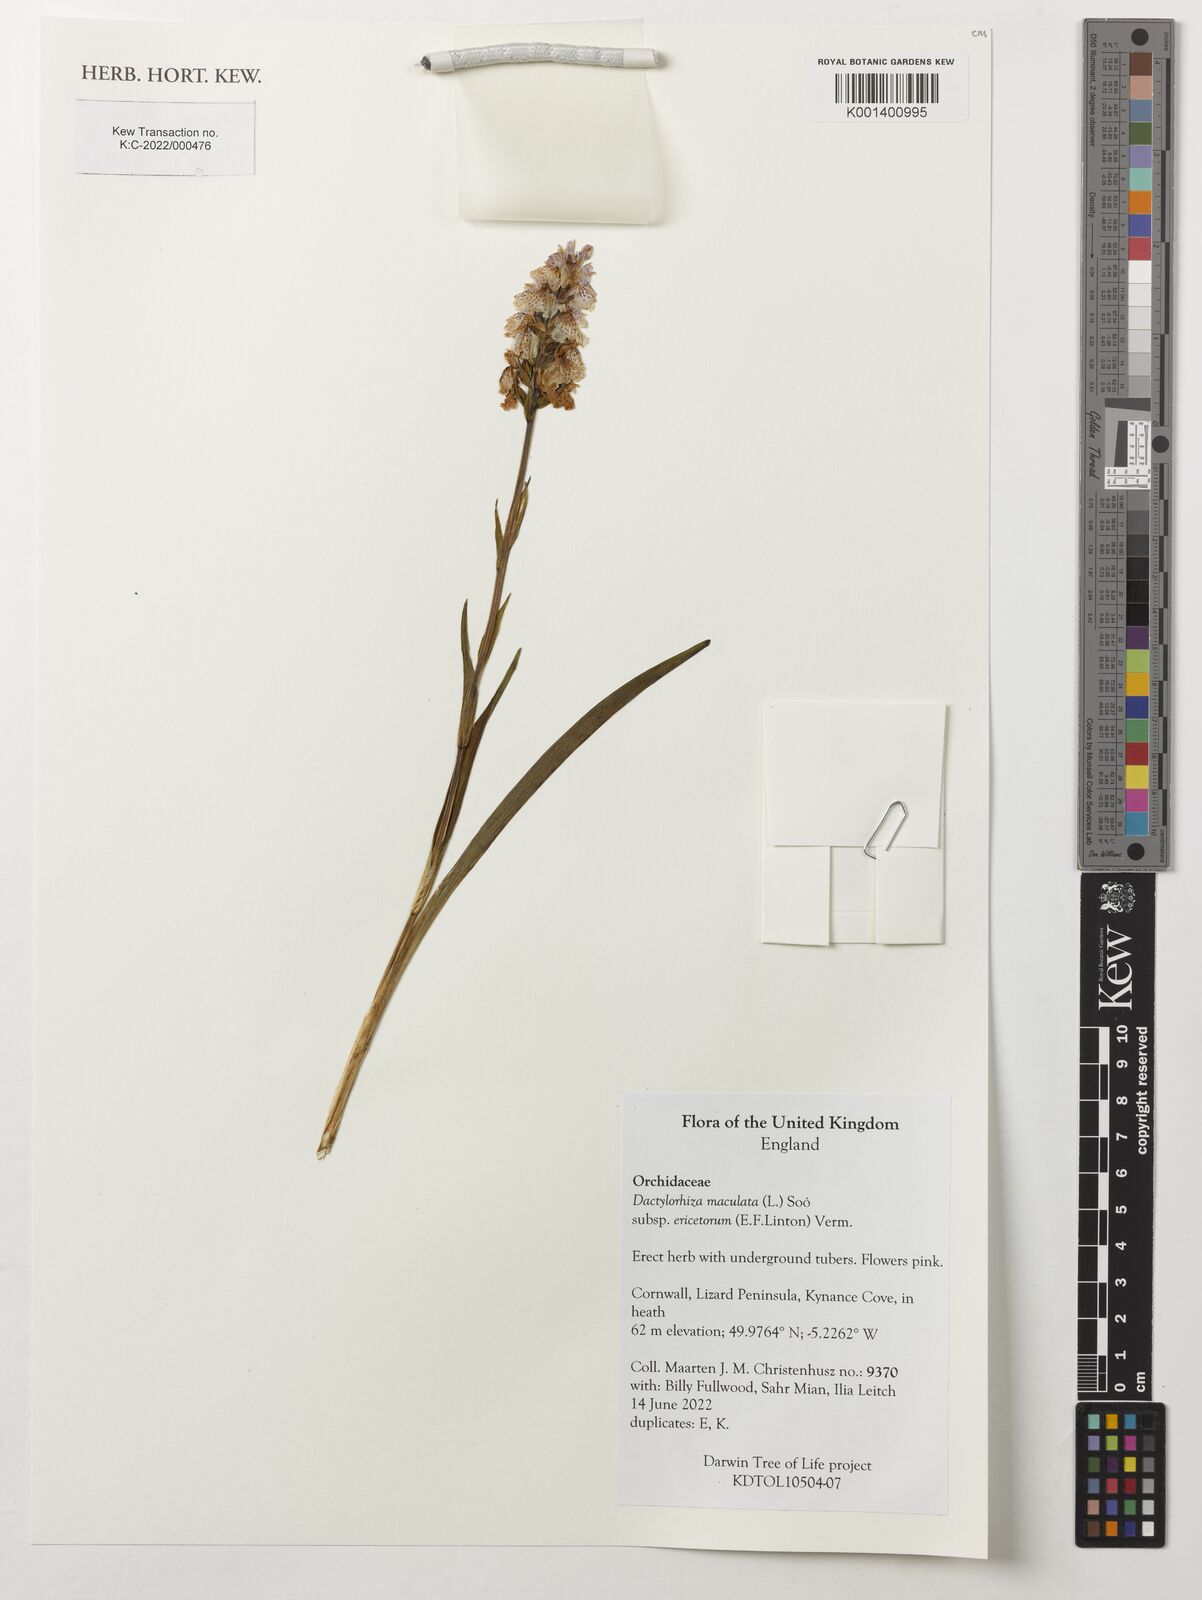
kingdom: Plantae
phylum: Tracheophyta
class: Liliopsida
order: Asparagales
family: Orchidaceae
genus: Dactylorhiza
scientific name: Dactylorhiza maculata
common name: Heath spotted-orchid
